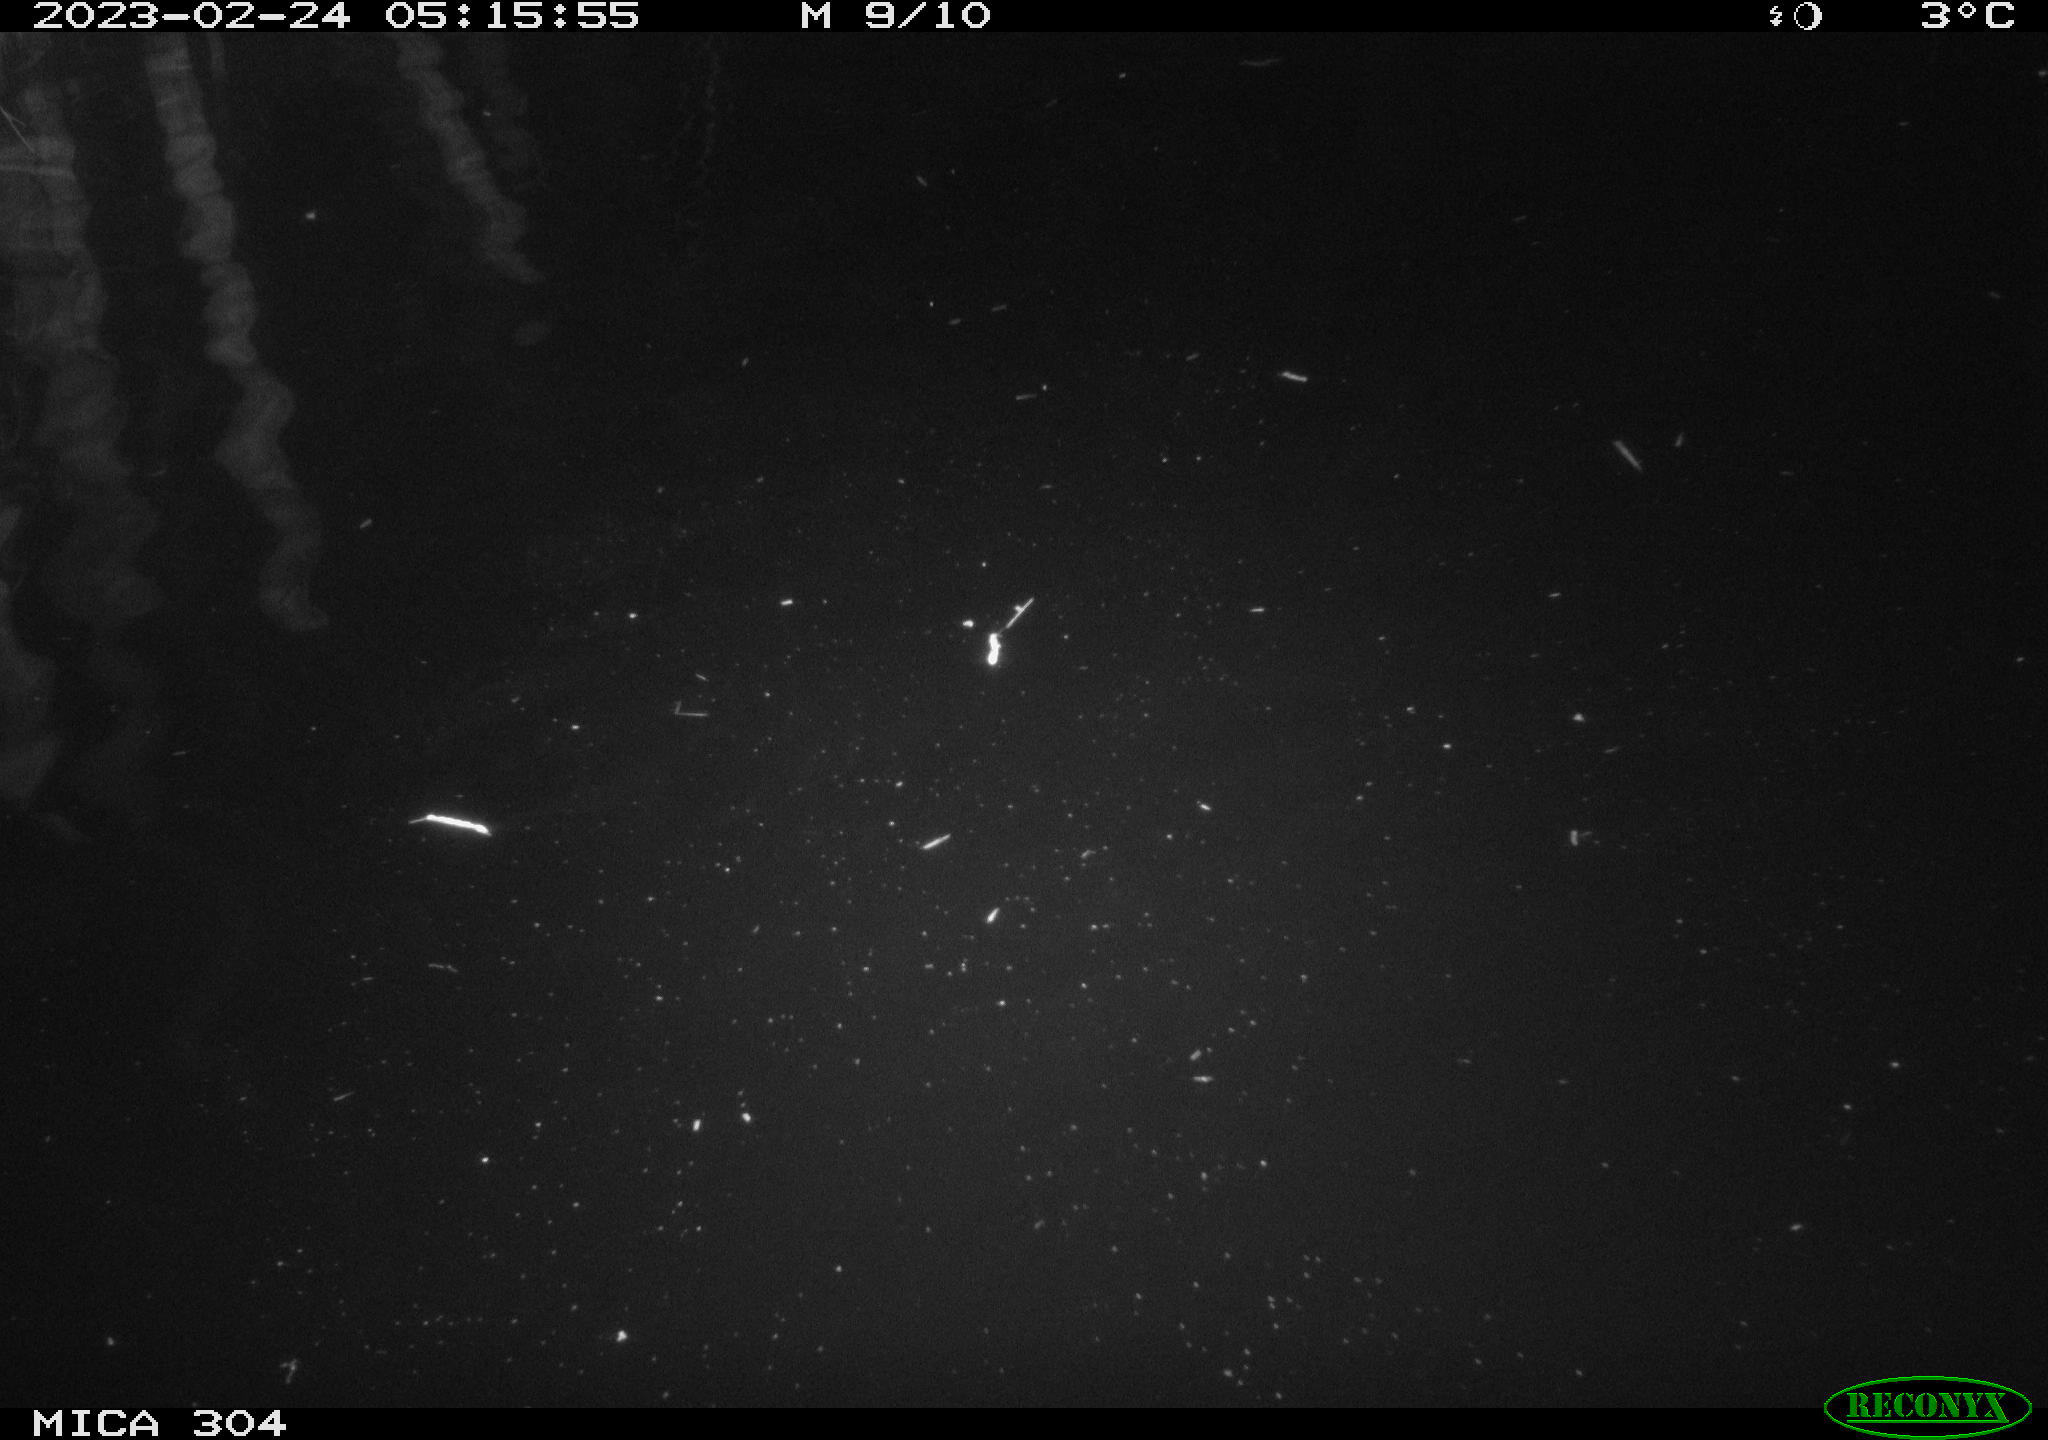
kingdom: Animalia
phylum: Chordata
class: Mammalia
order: Rodentia
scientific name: Rodentia
